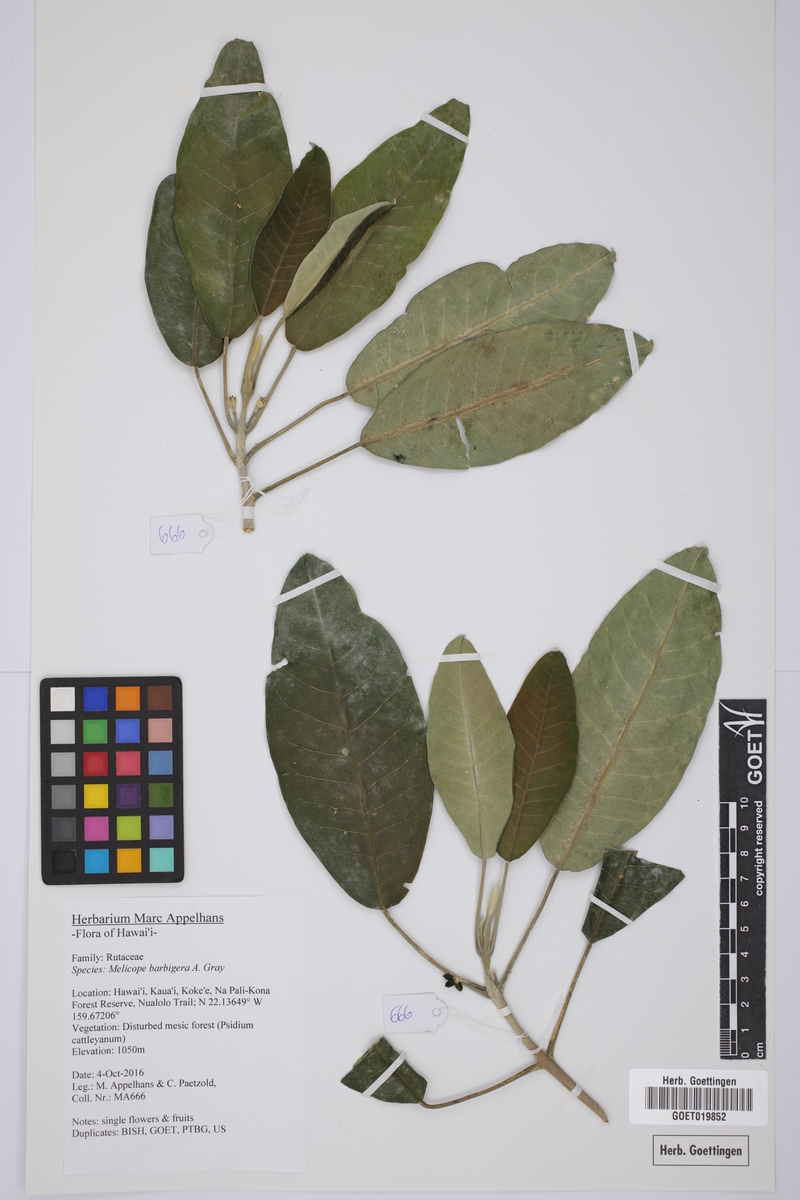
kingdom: Plantae
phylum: Tracheophyta
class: Magnoliopsida
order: Sapindales
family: Rutaceae
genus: Melicope
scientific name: Melicope barbigera
